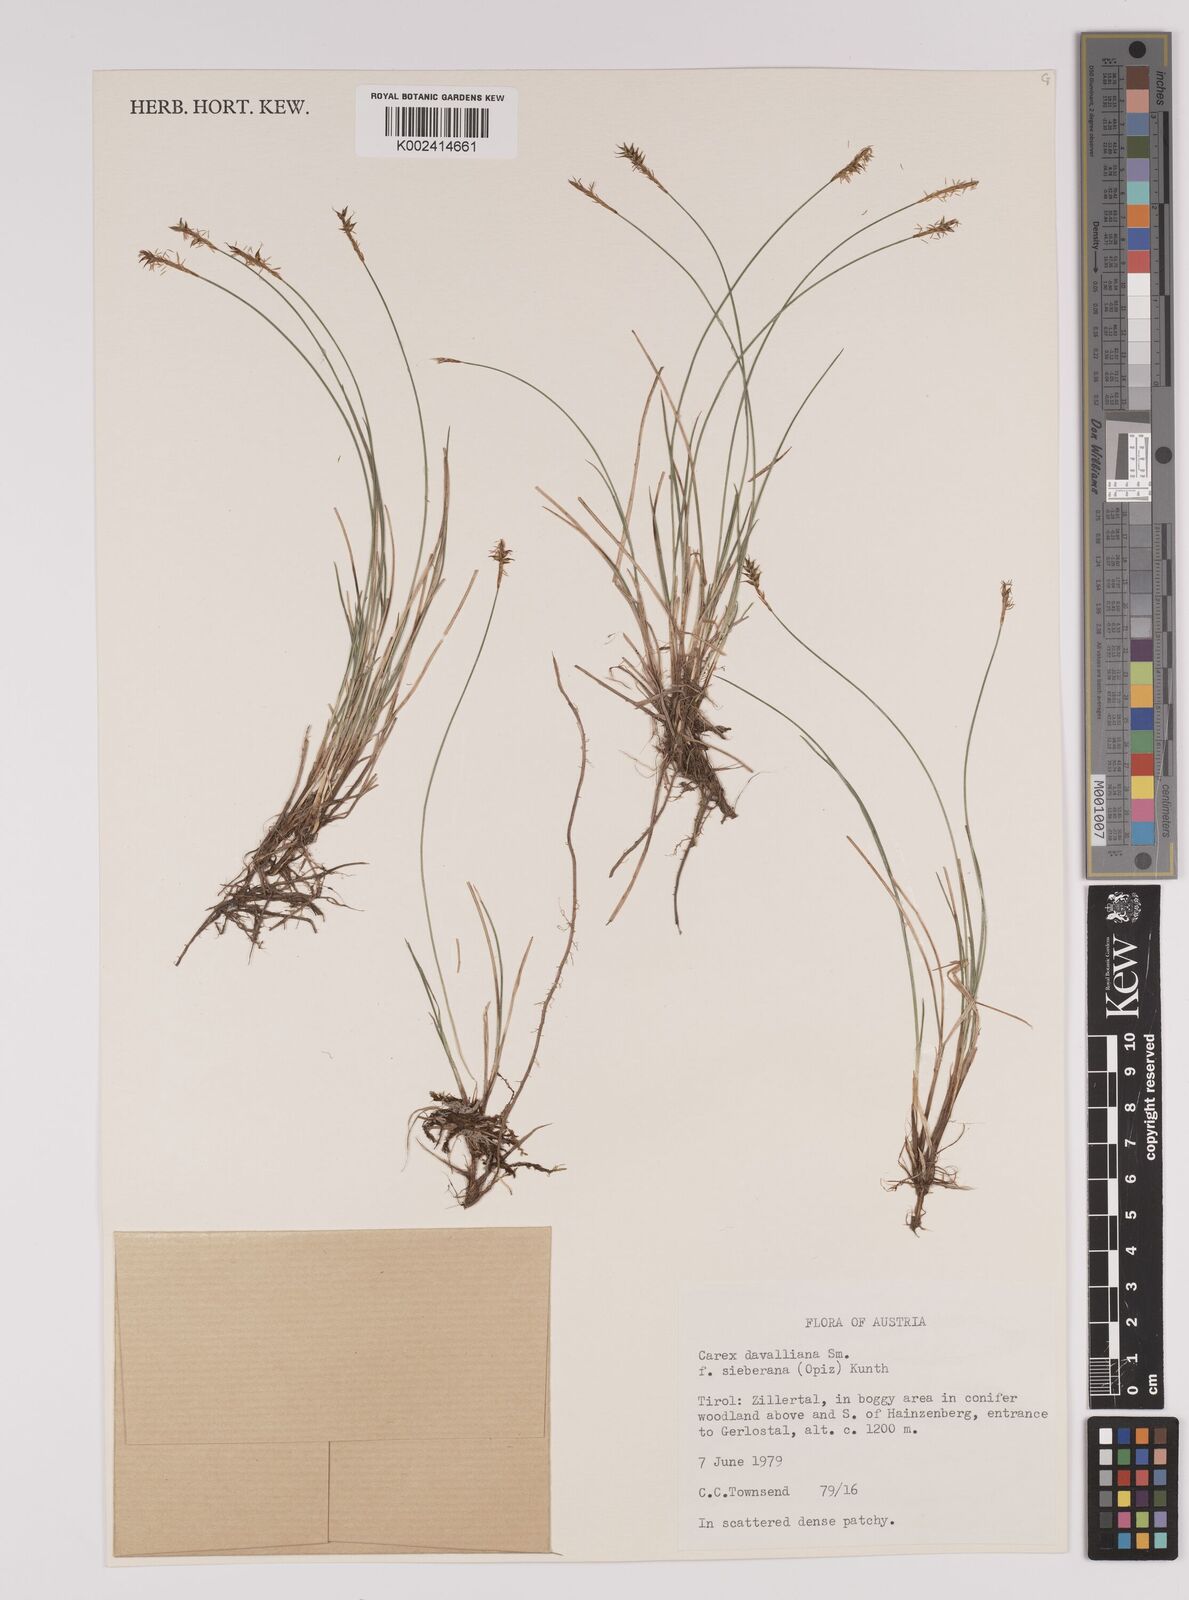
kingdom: Plantae
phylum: Tracheophyta
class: Liliopsida
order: Poales
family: Cyperaceae
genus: Carex
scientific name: Carex davalliana
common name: Davall's sedge
